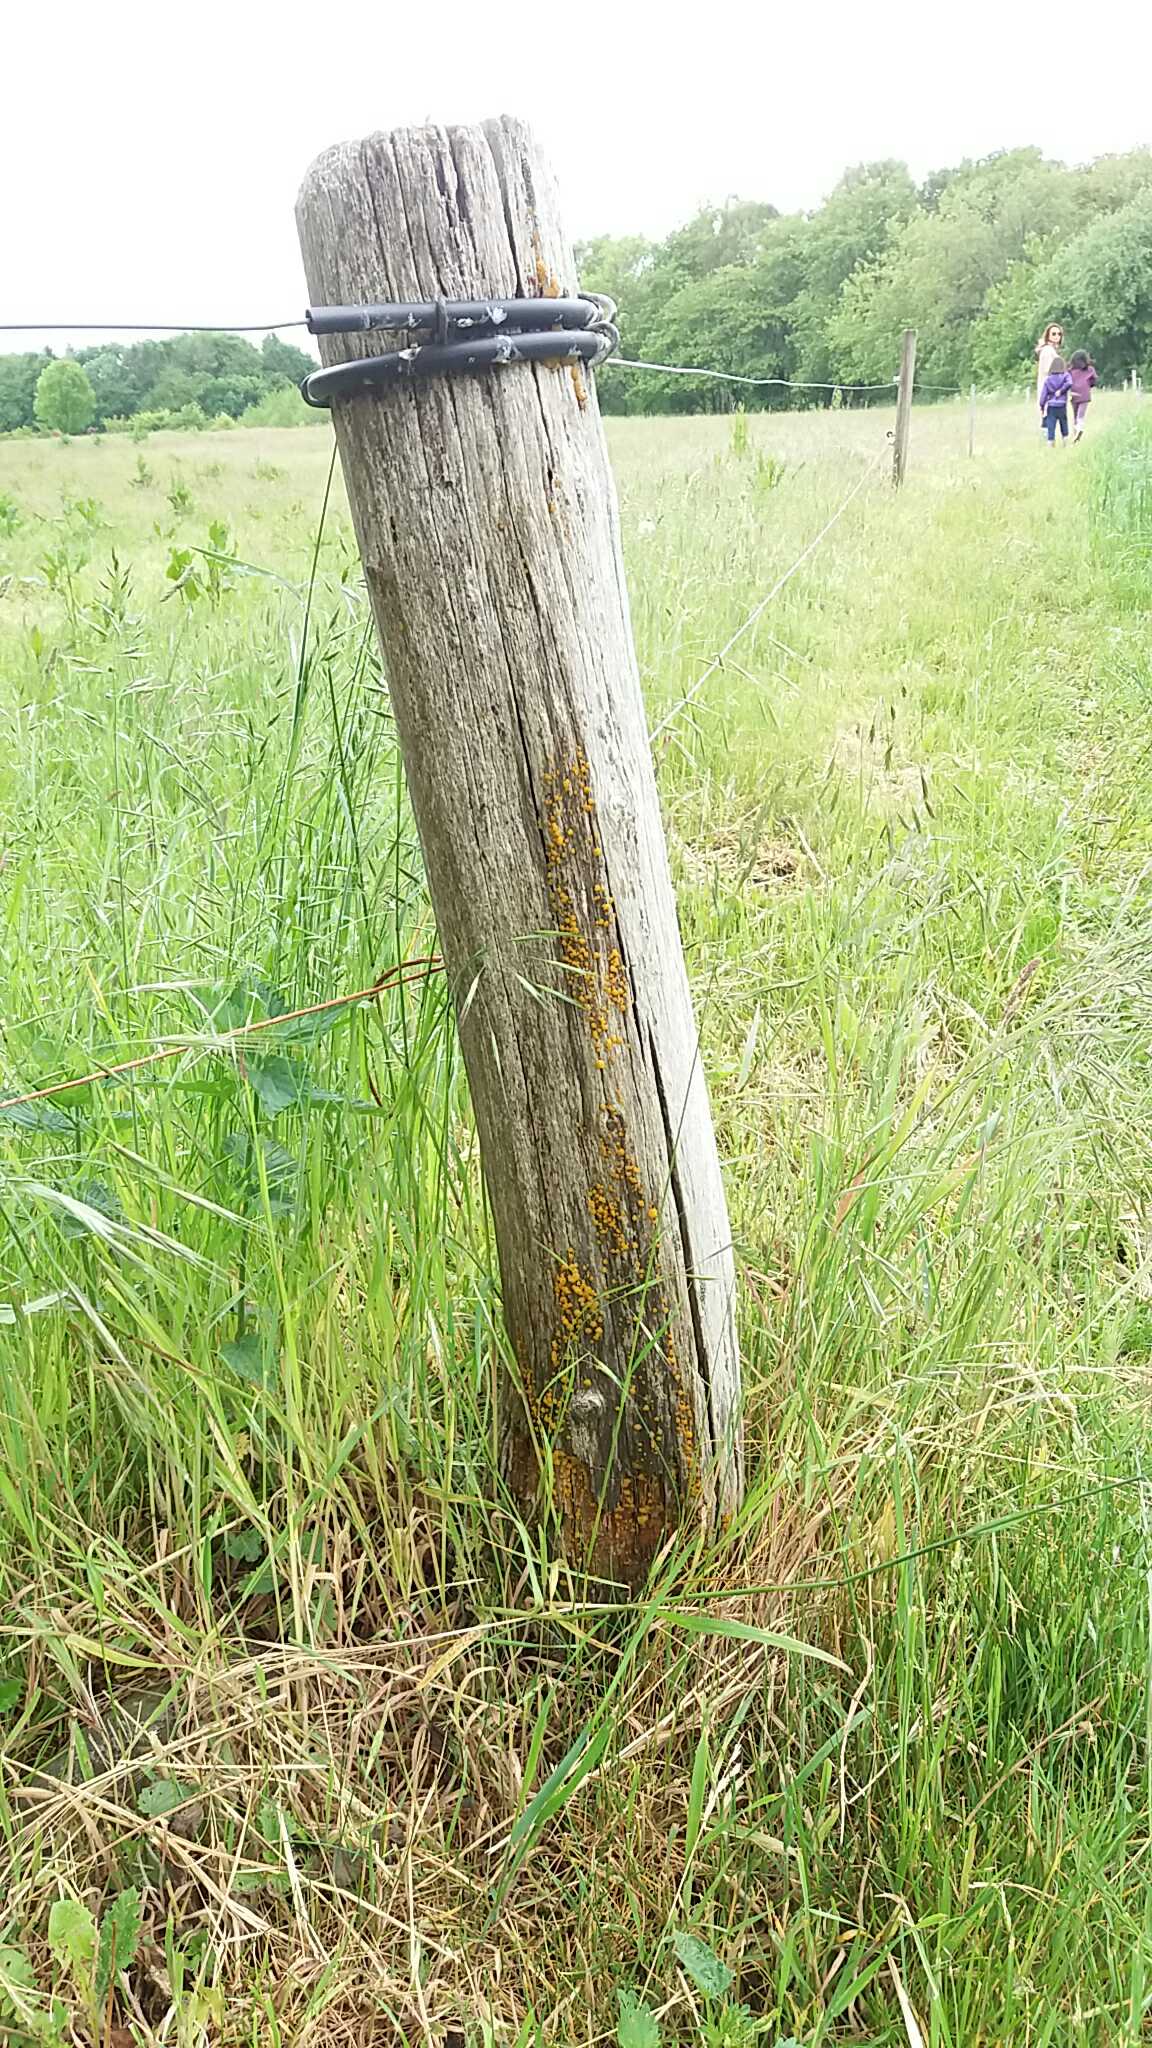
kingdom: Fungi
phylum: Basidiomycota
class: Dacrymycetes
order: Dacrymycetales
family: Dacrymycetaceae
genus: Dacrymyces
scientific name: Dacrymyces
